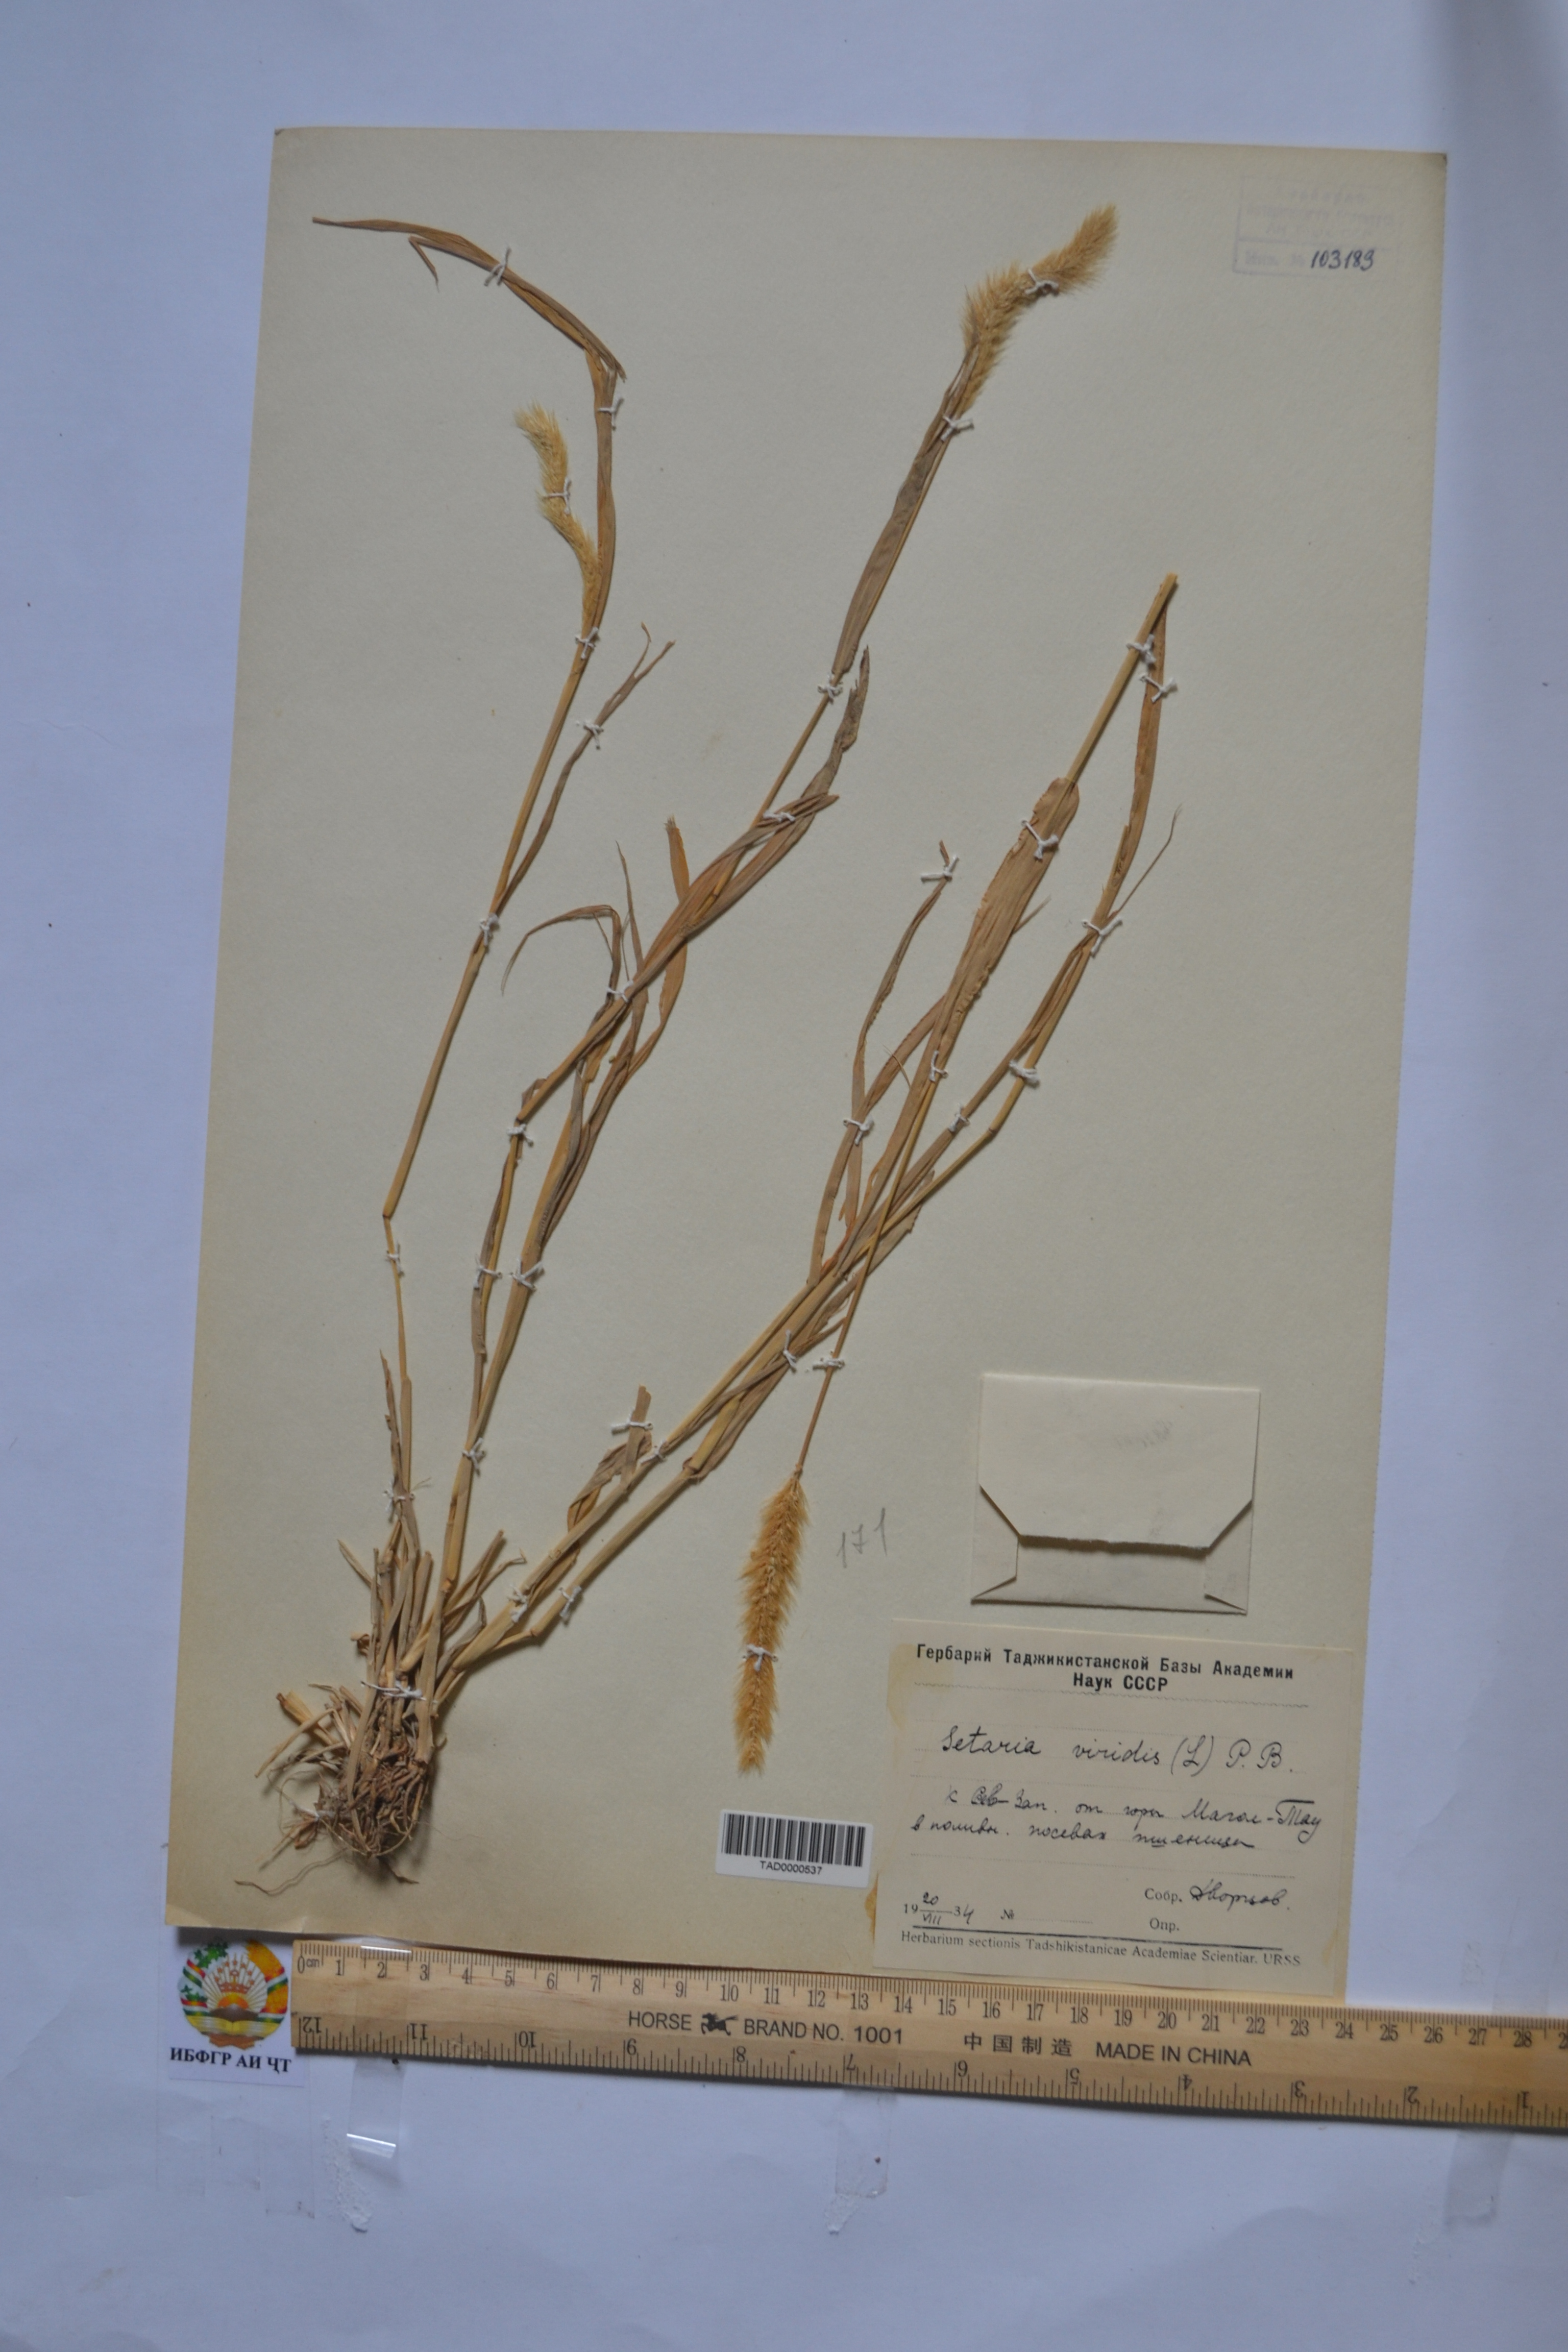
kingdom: Plantae
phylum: Tracheophyta
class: Liliopsida
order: Poales
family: Poaceae
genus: Setaria
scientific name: Setaria viridis
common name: Green bristlegrass
